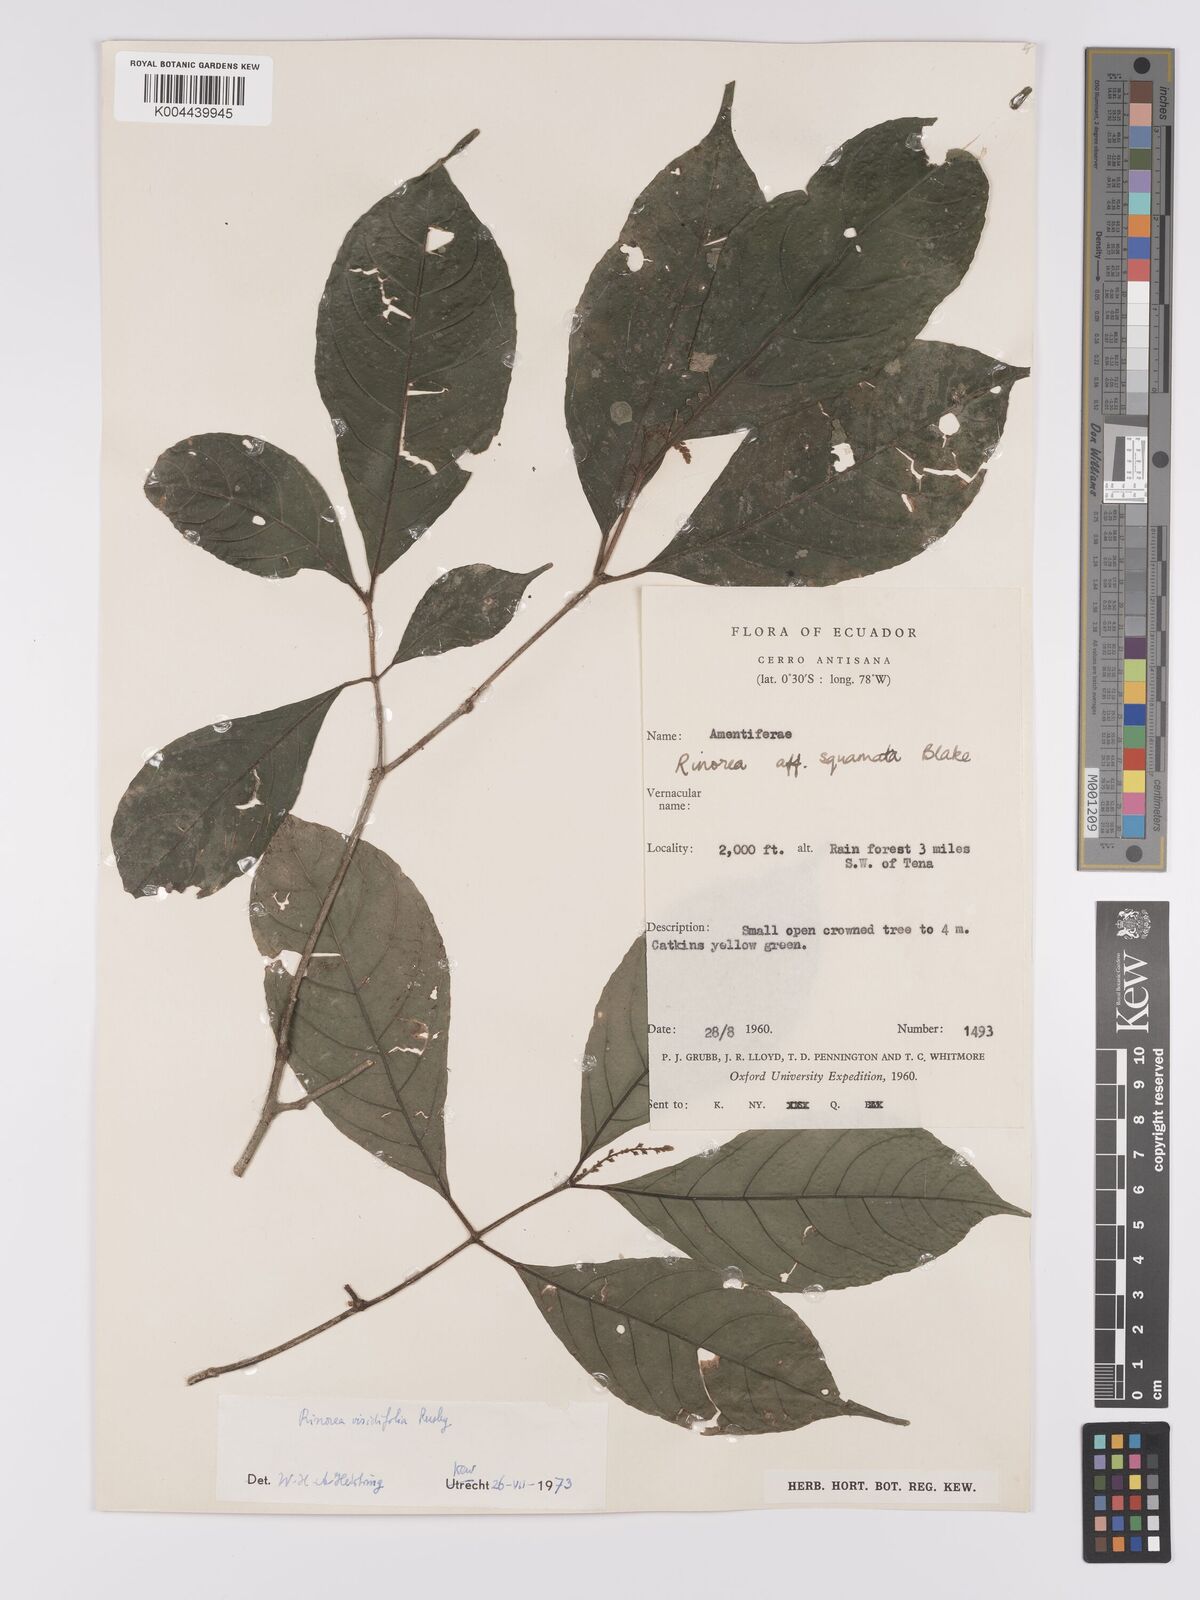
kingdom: Plantae
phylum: Tracheophyta
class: Magnoliopsida
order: Malpighiales
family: Violaceae
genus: Rinorea
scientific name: Rinorea viridifolia
